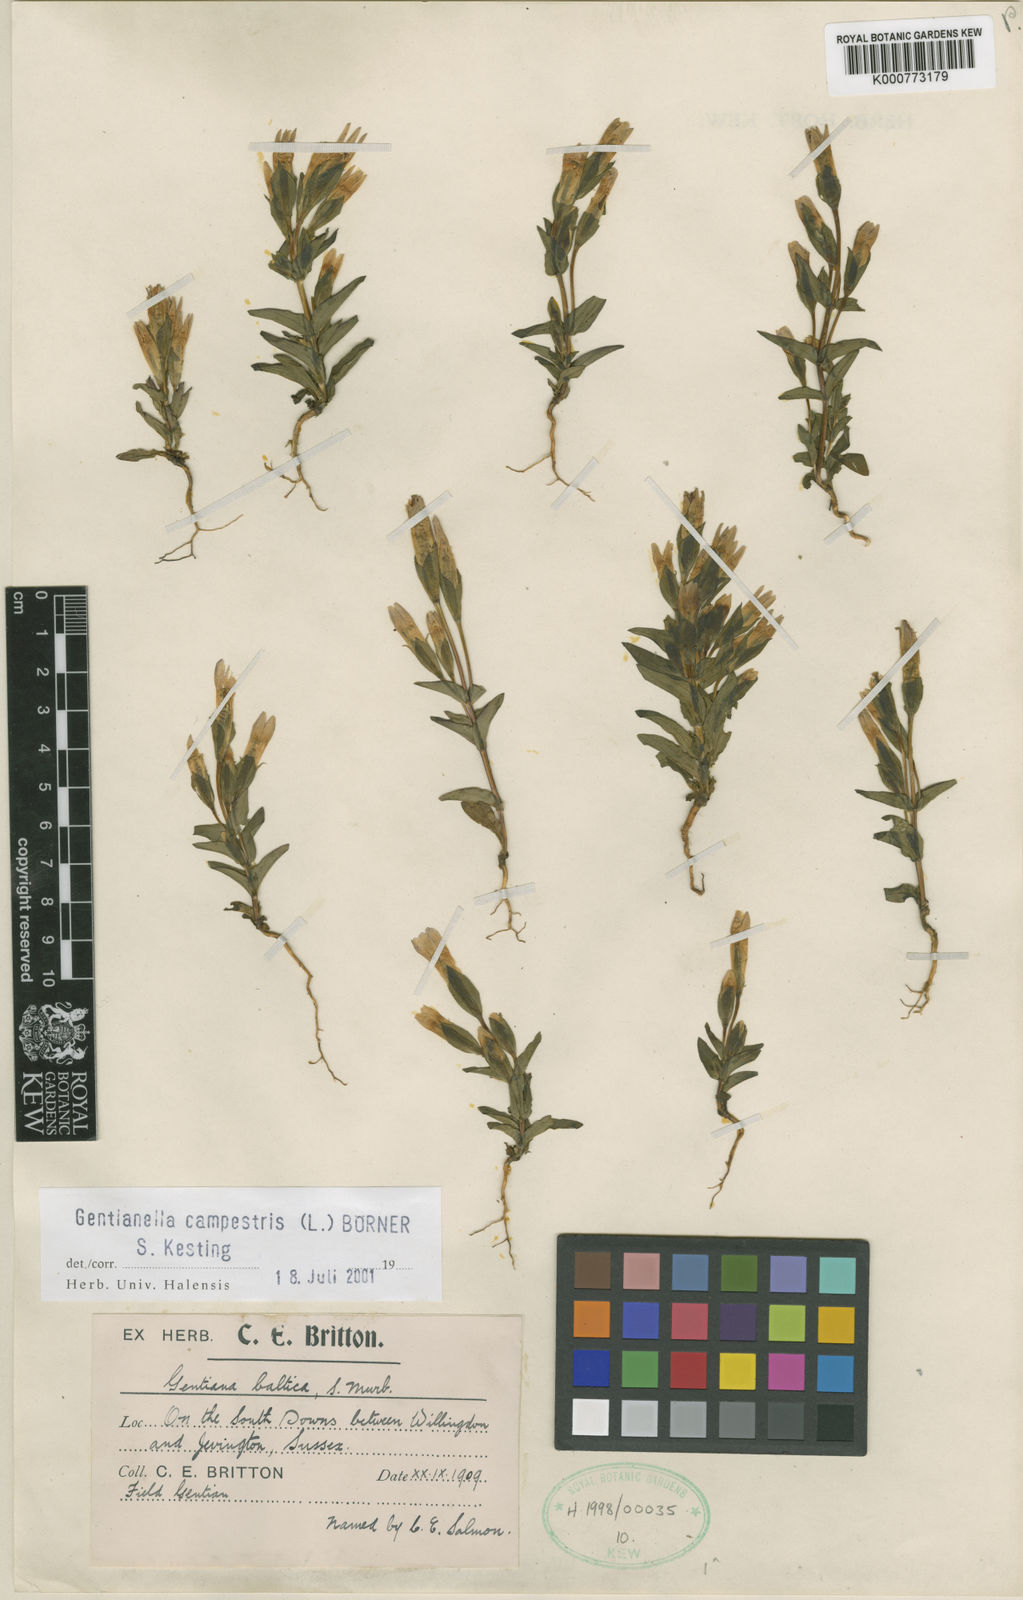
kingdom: Plantae
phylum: Tracheophyta
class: Magnoliopsida
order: Gentianales
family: Gentianaceae
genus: Gentianella
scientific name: Gentianella
